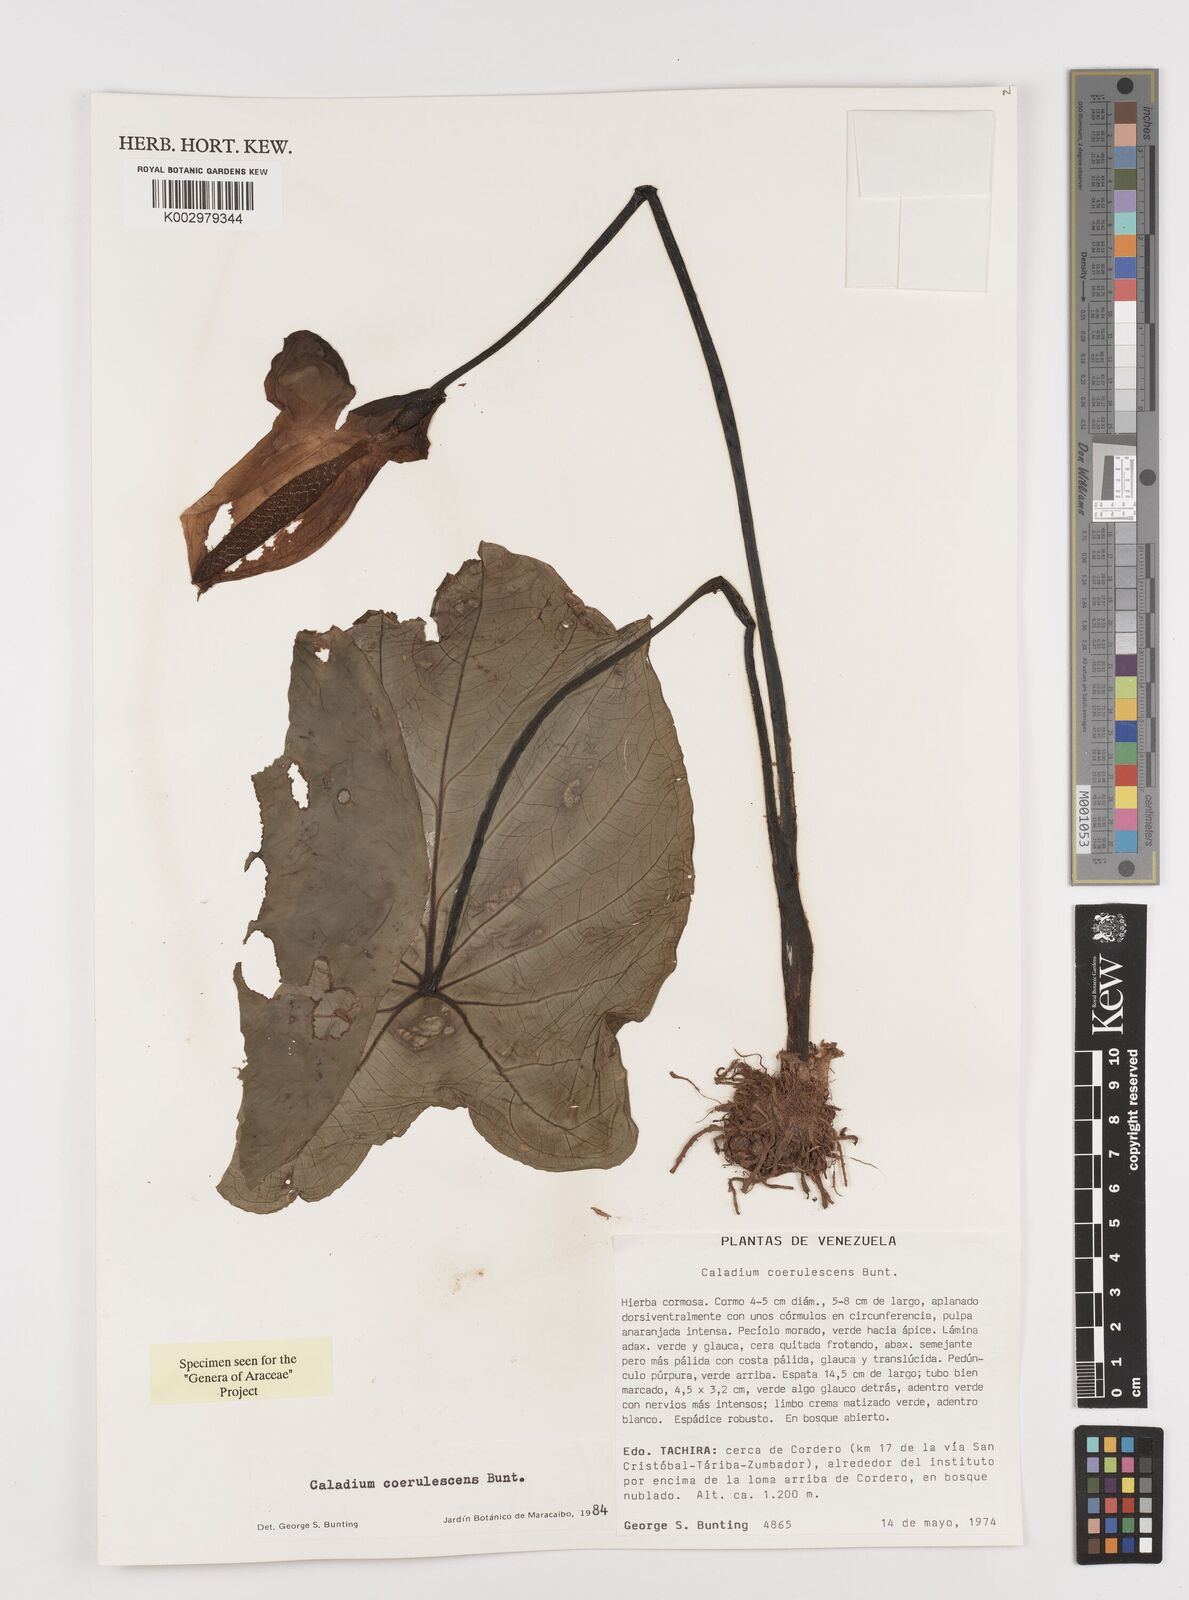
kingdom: Plantae
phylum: Tracheophyta
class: Liliopsida
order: Alismatales
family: Araceae
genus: Caladium
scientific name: Caladium coerulescens
